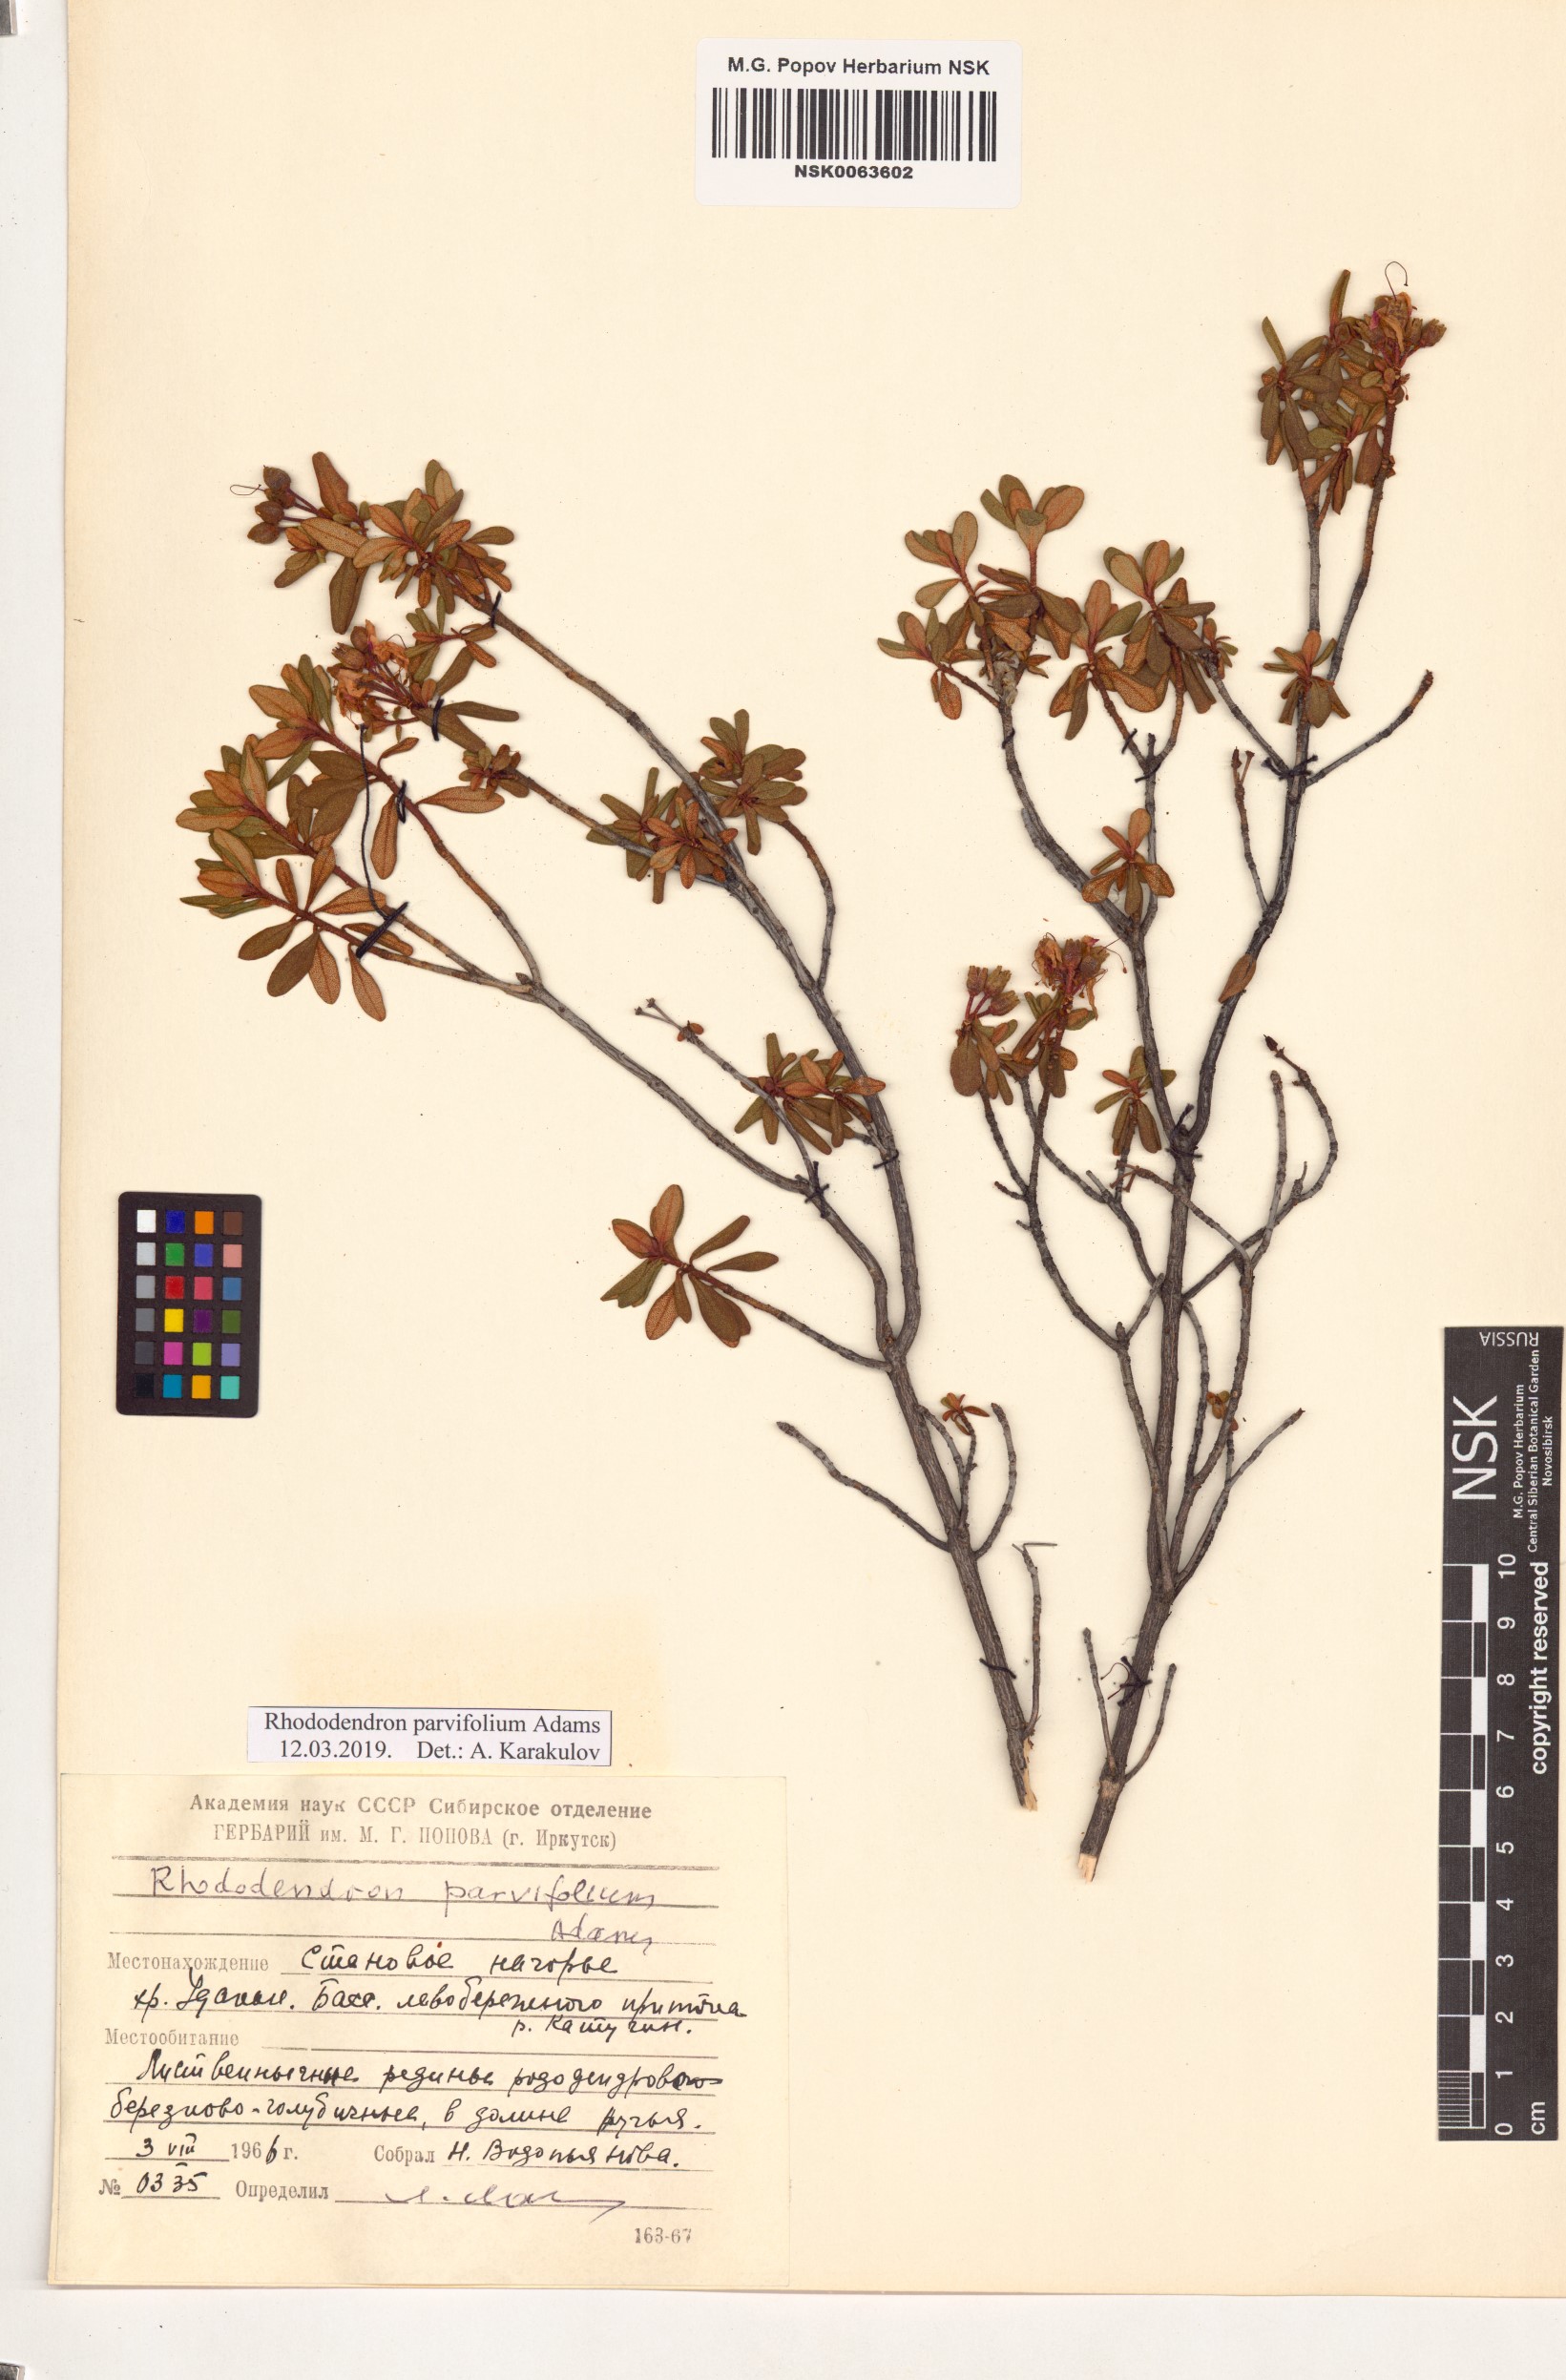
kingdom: Plantae
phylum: Tracheophyta
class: Magnoliopsida
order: Ericales
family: Ericaceae
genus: Rhododendron
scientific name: Rhododendron parvifolium
